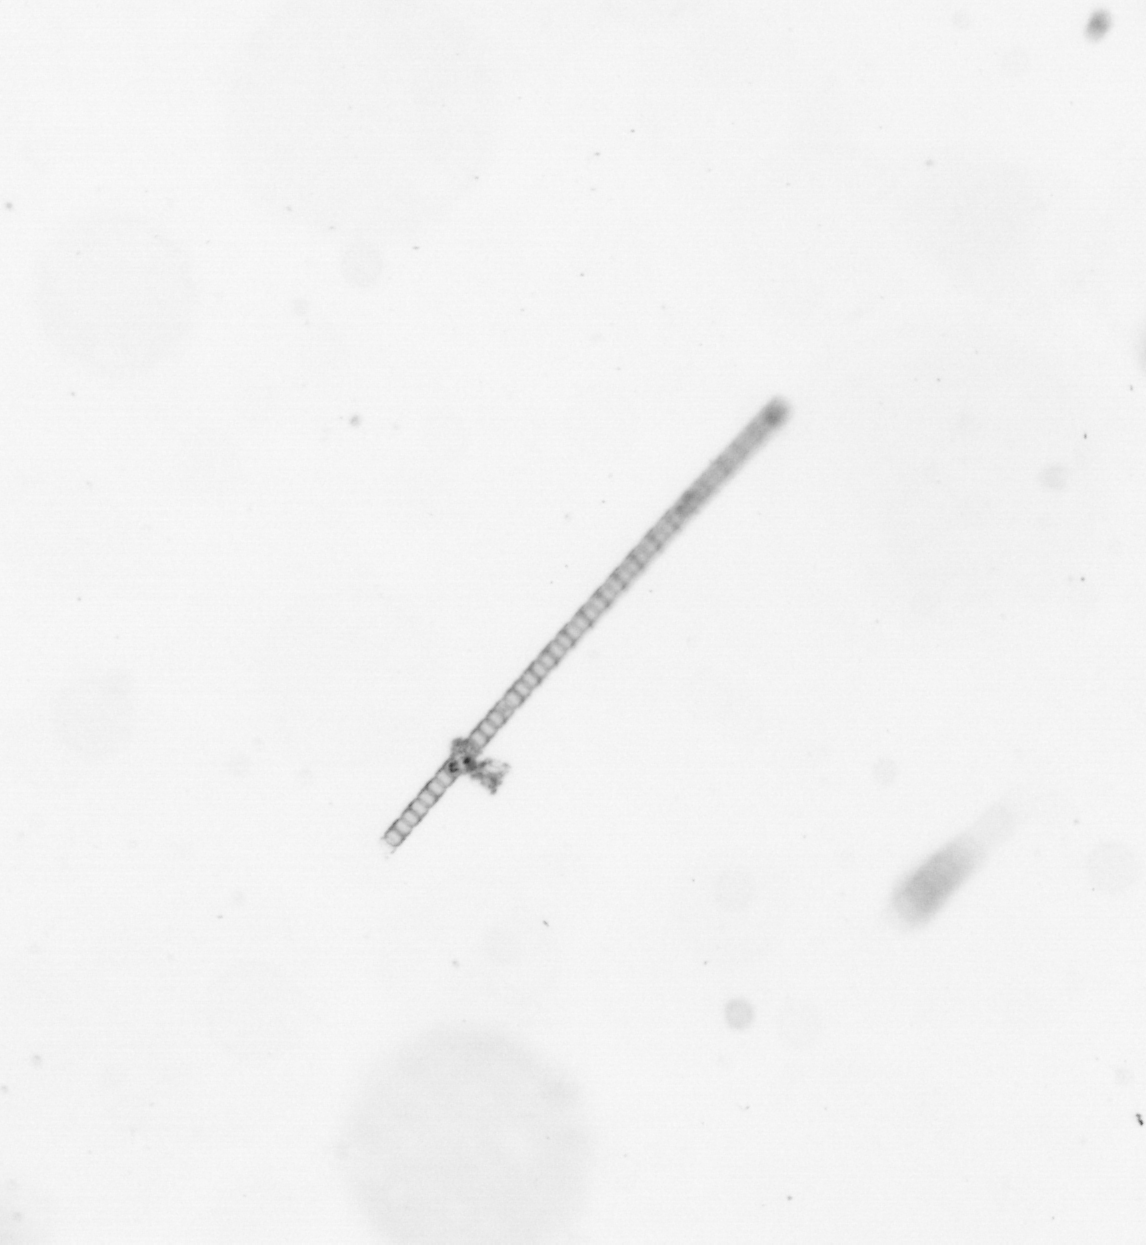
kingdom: Chromista
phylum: Ochrophyta
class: Bacillariophyceae
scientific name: Bacillariophyceae
